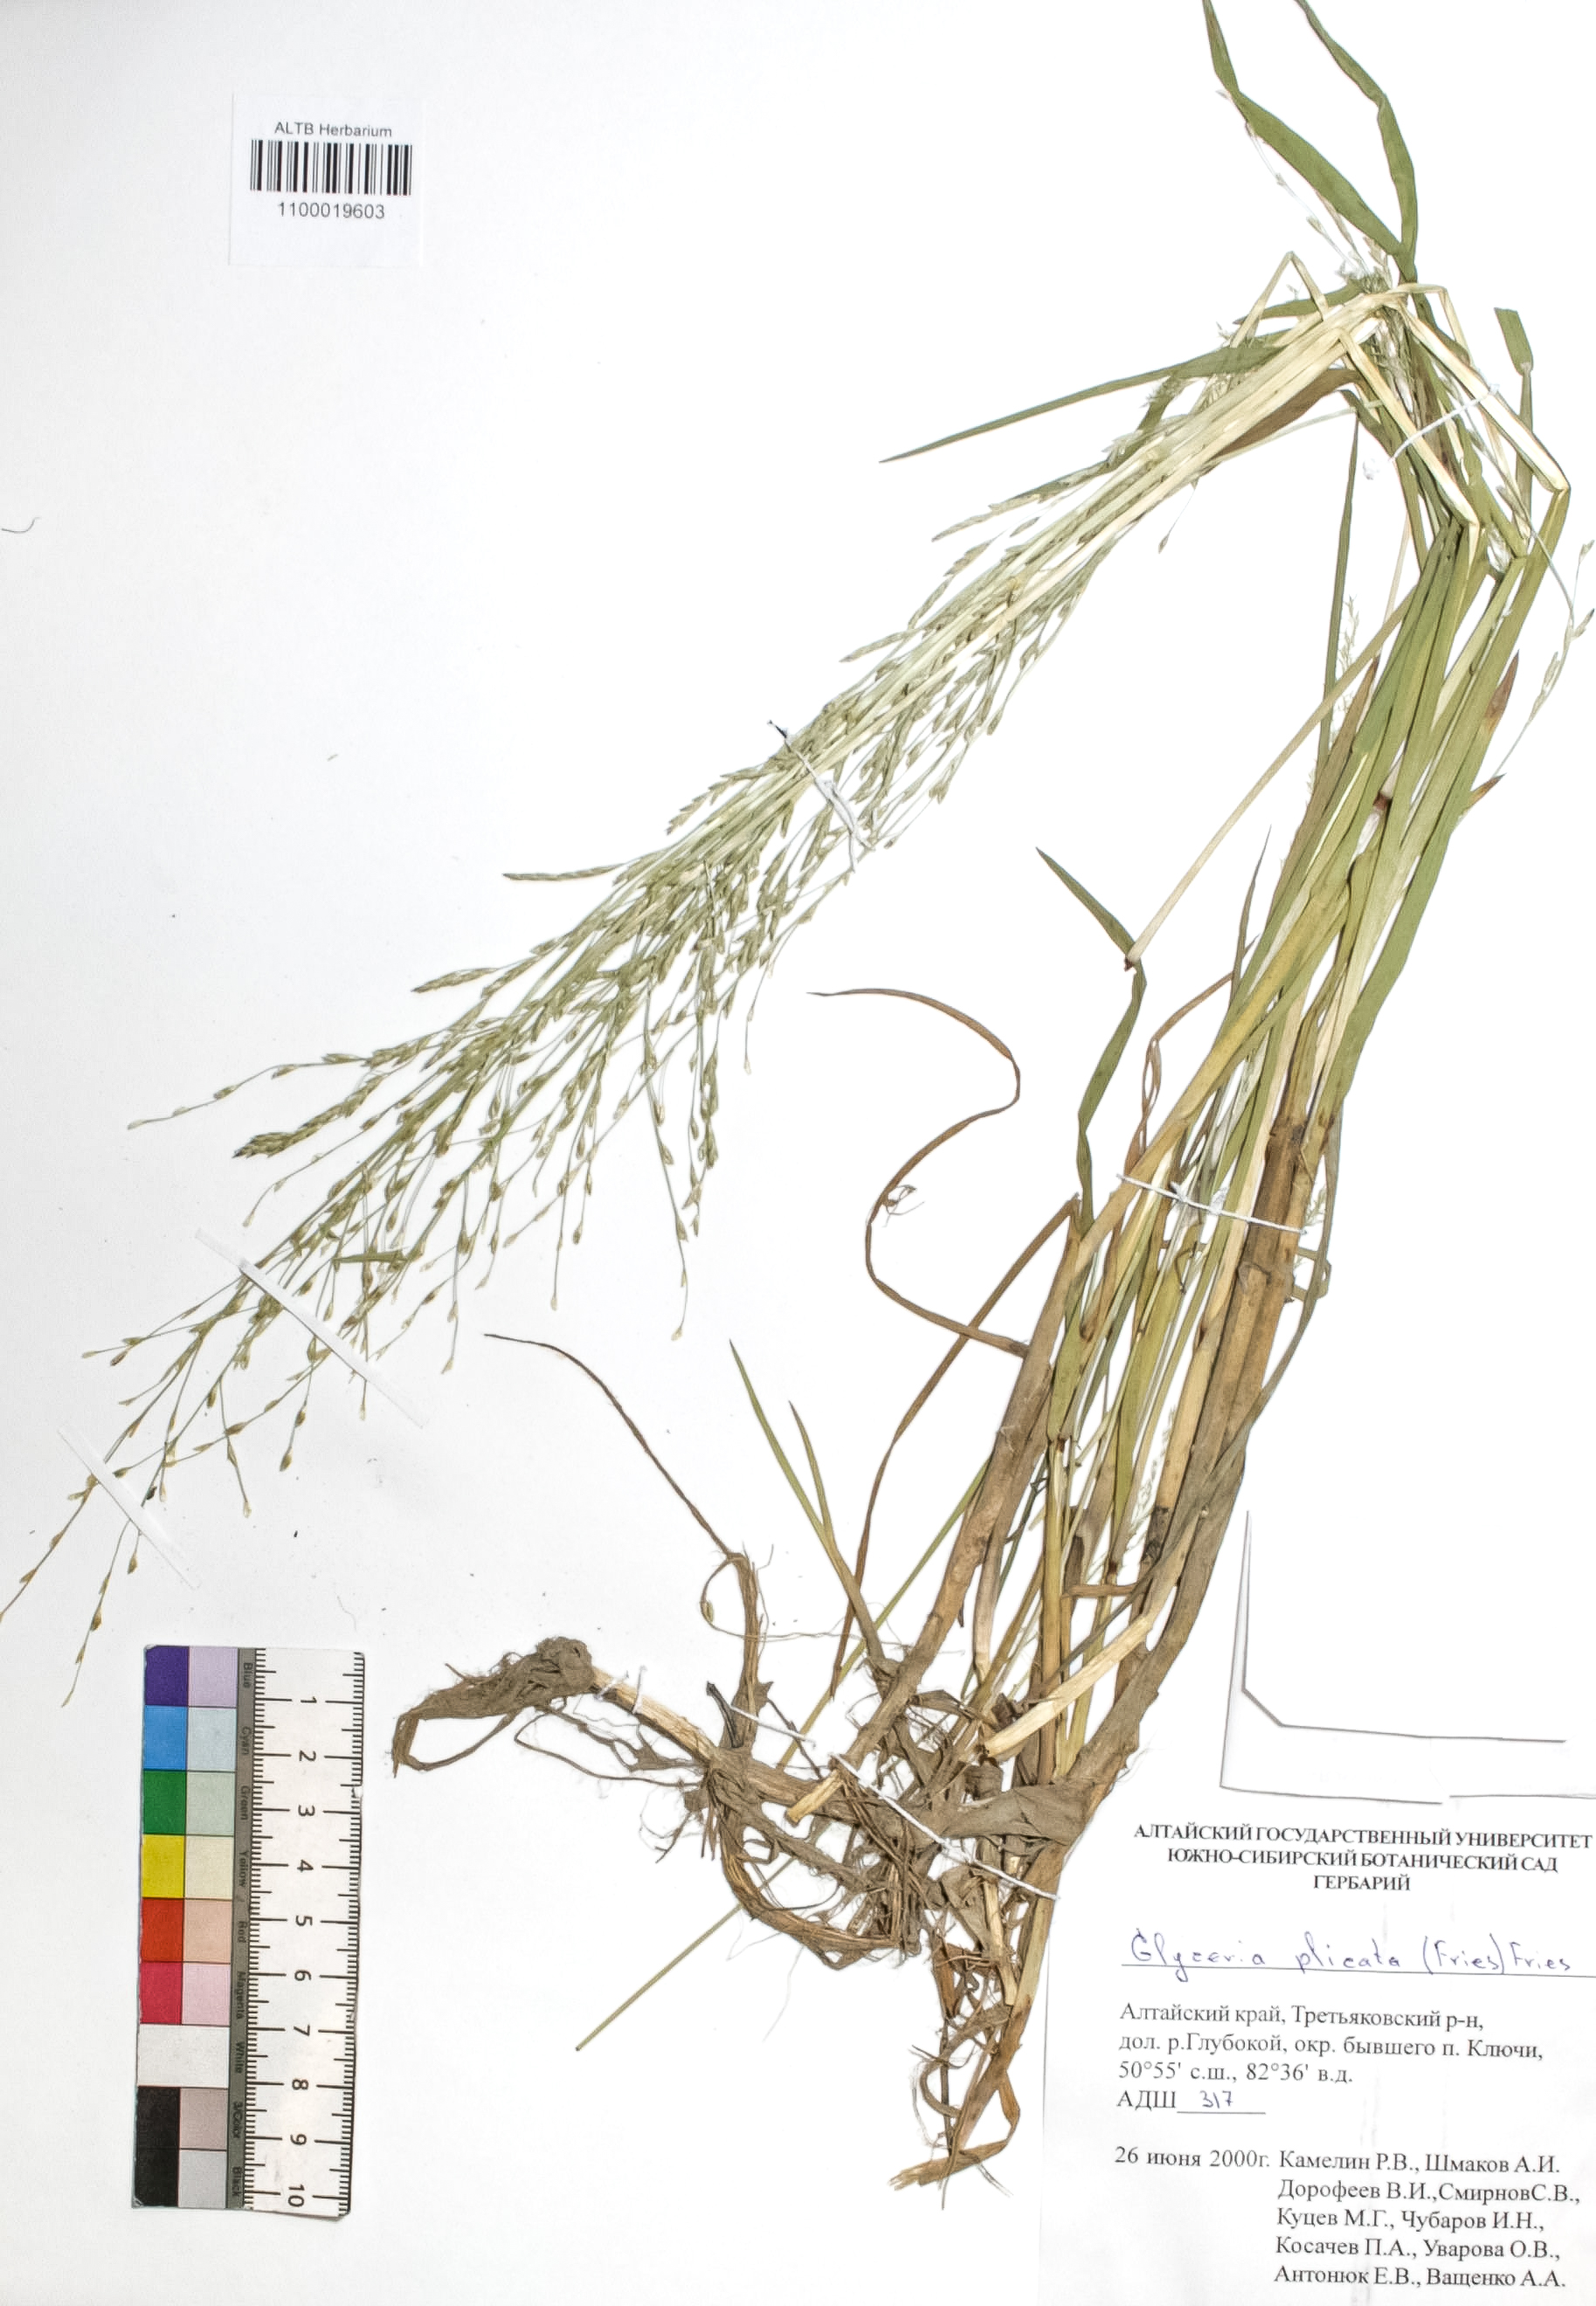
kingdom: Plantae
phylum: Tracheophyta
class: Liliopsida
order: Poales
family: Poaceae
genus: Glyceria
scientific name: Glyceria notata
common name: Plicate sweet-grass
